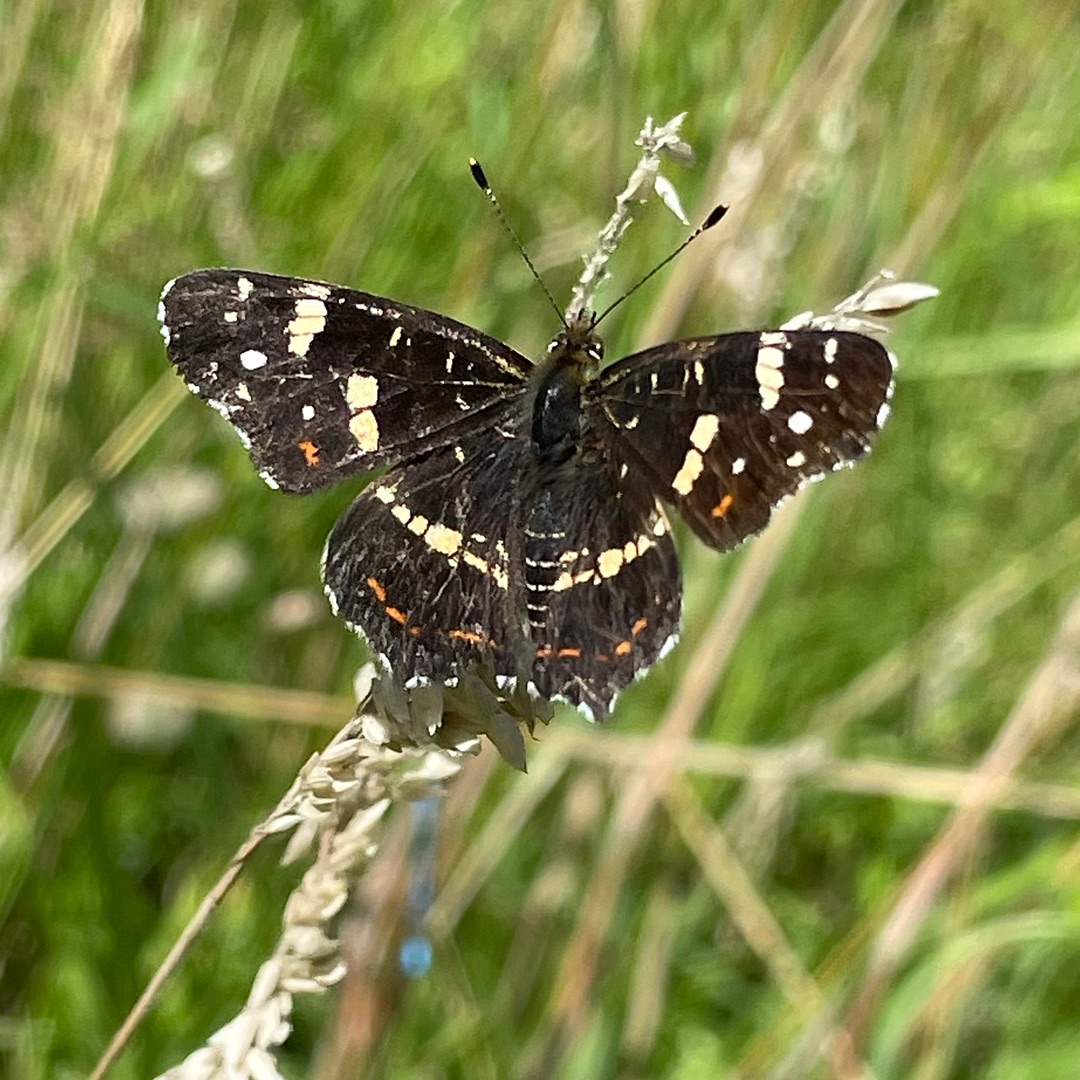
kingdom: Animalia
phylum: Arthropoda
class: Insecta
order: Lepidoptera
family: Nymphalidae
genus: Araschnia
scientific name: Araschnia levana
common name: Nældesommerfugl
